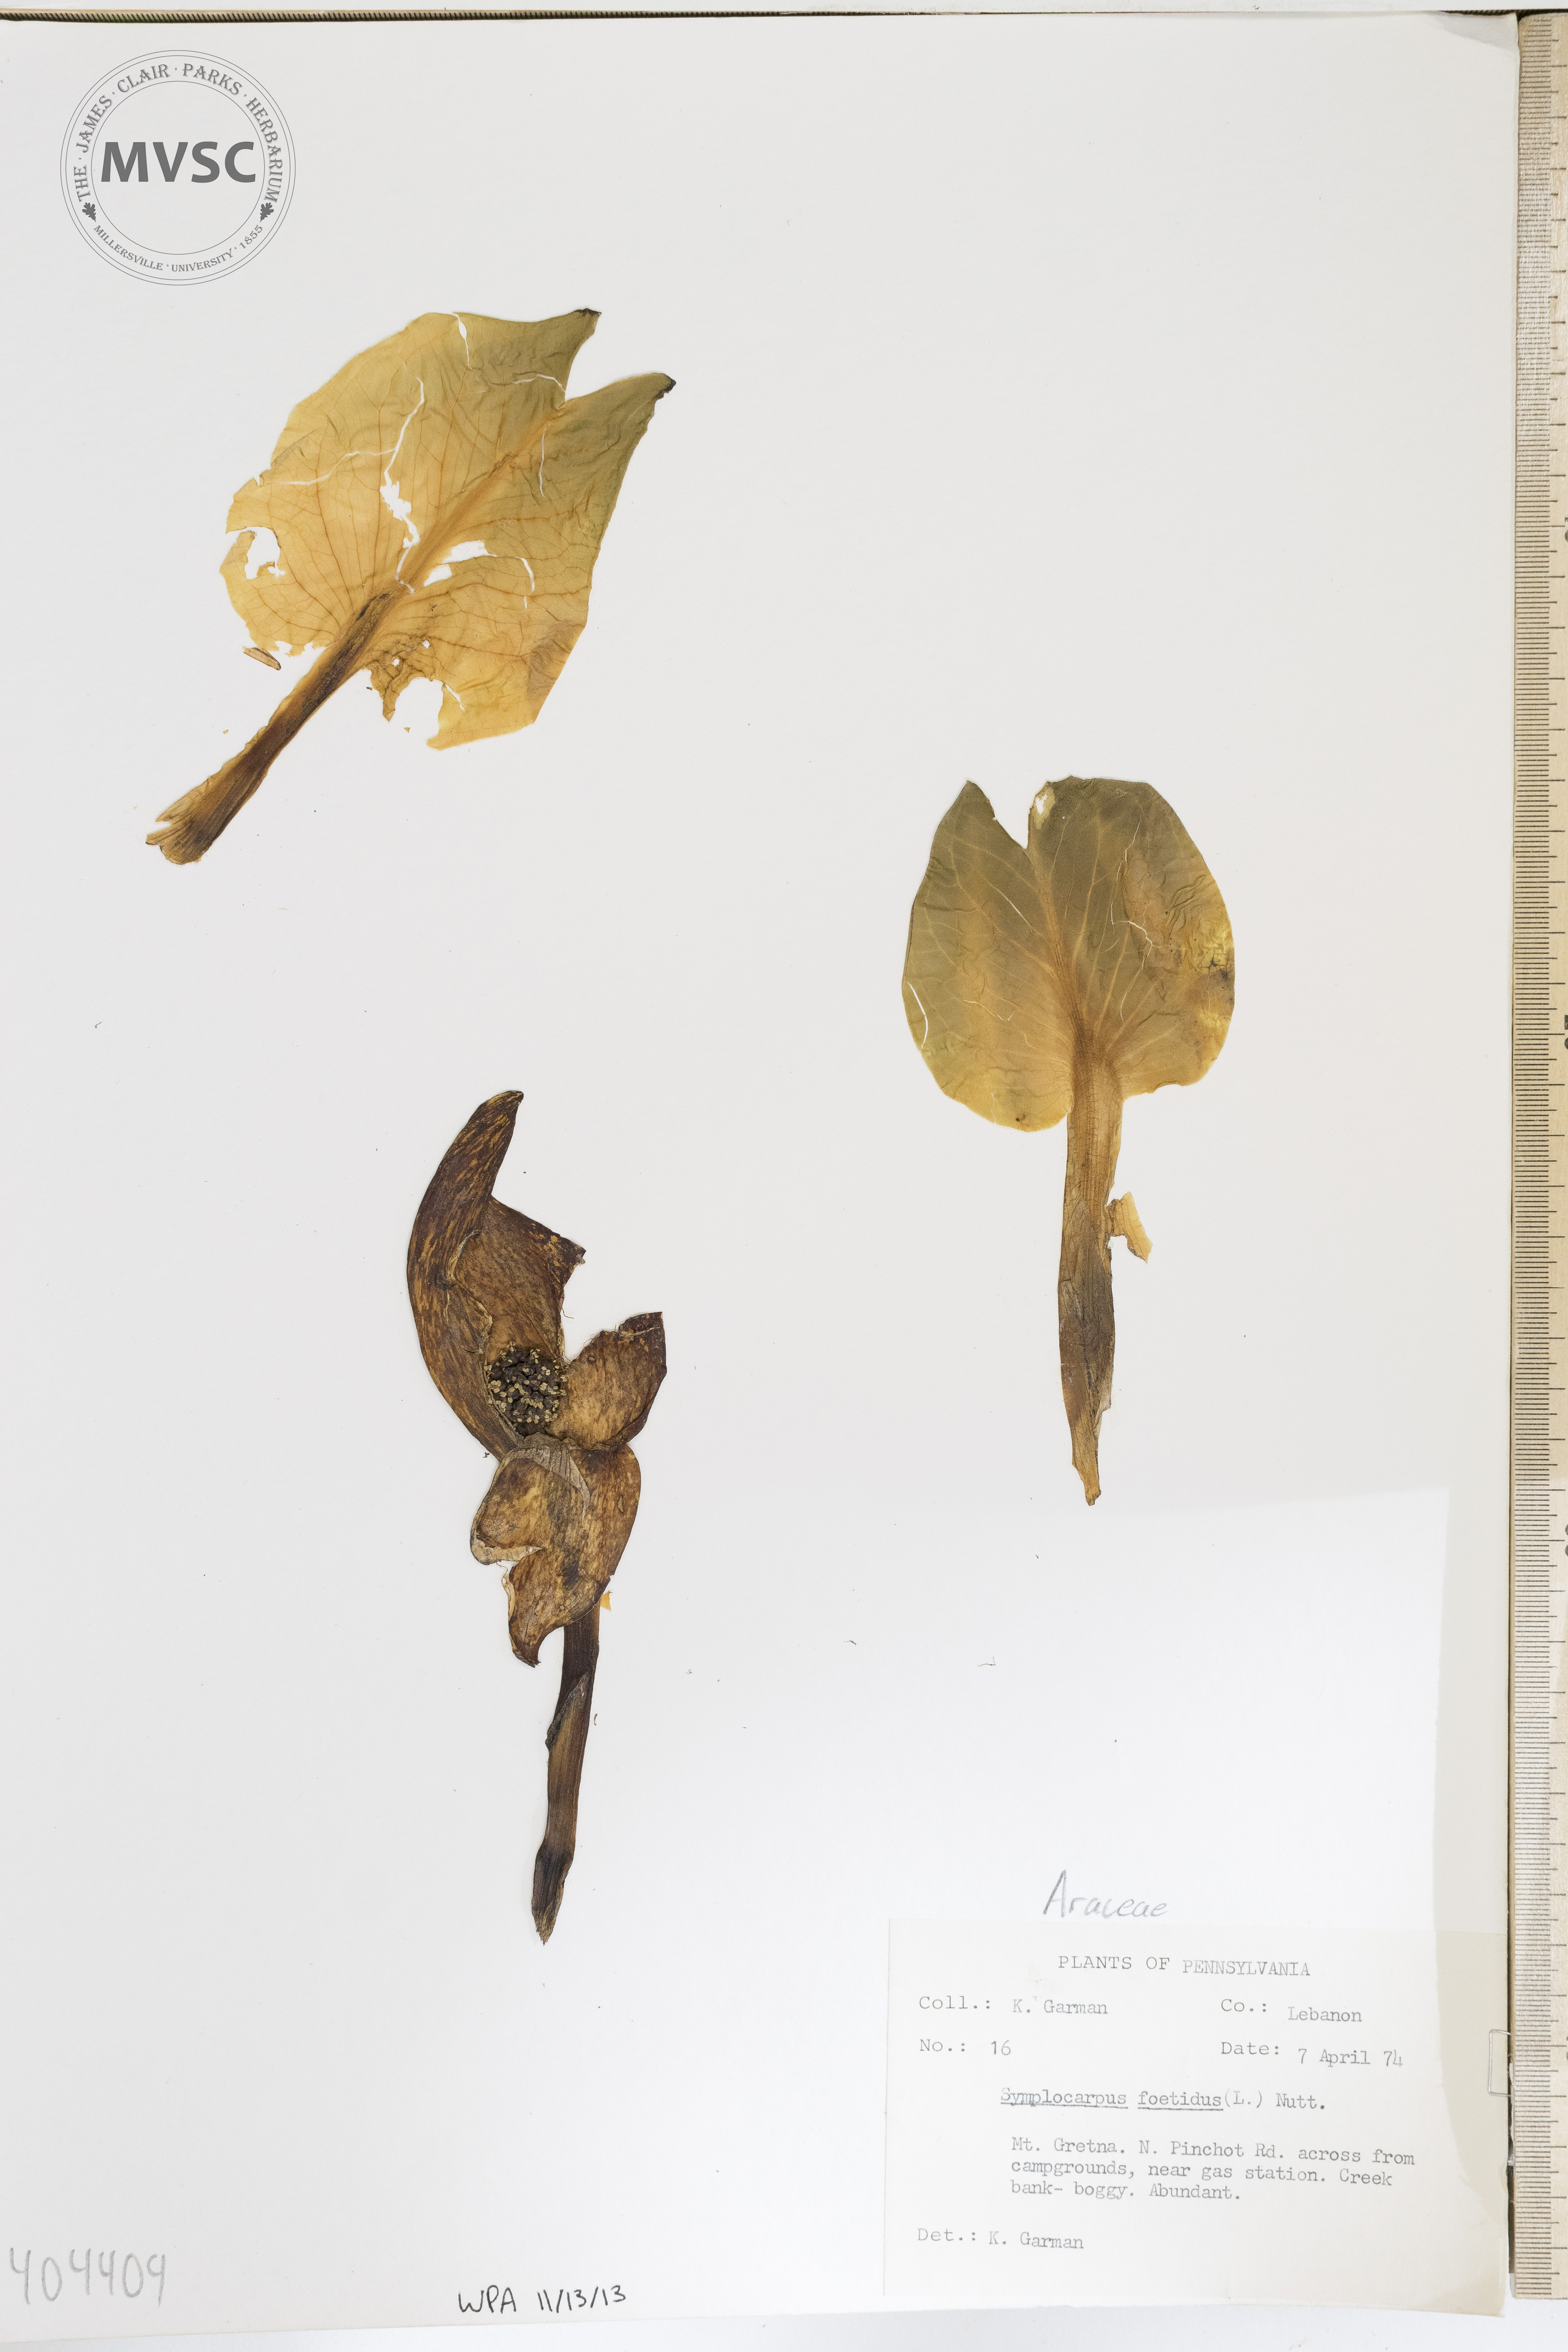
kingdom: Plantae
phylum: Tracheophyta
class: Liliopsida
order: Alismatales
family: Araceae
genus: Symplocarpus
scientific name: Symplocarpus foetidus
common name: Eastern skunk cabbage
